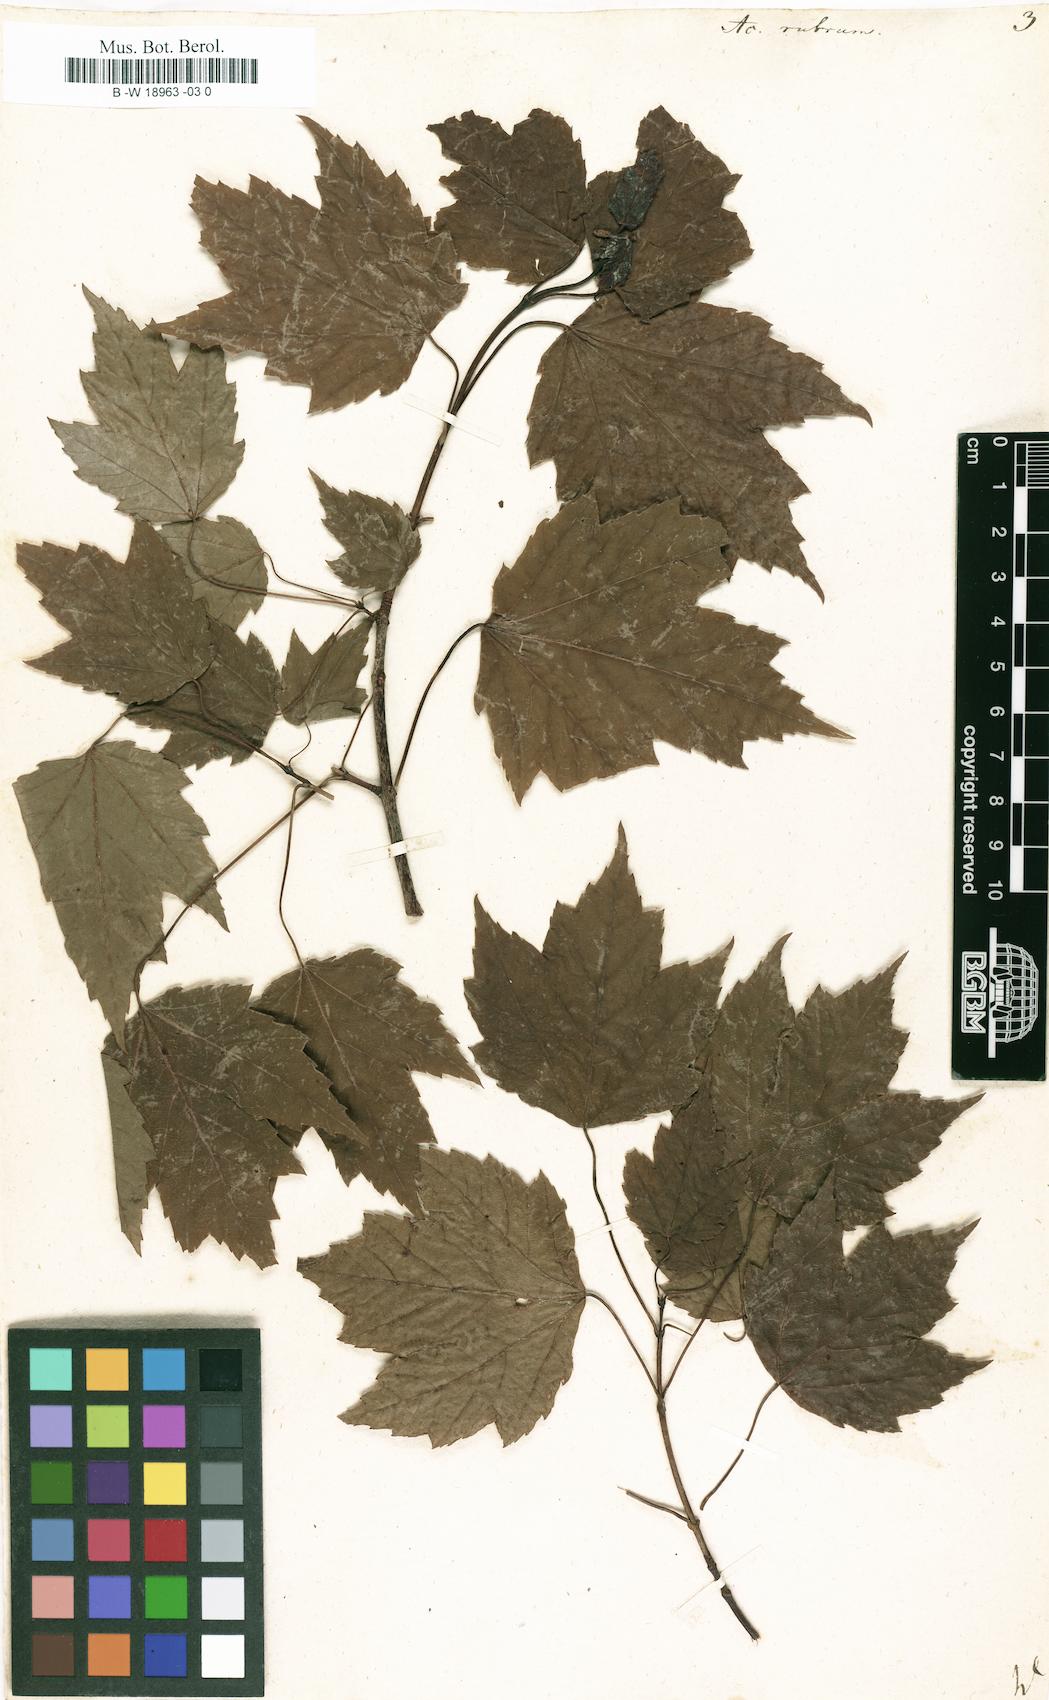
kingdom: Plantae
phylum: Tracheophyta
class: Magnoliopsida
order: Sapindales
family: Sapindaceae
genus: Acer
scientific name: Acer rubrum
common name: Red maple
